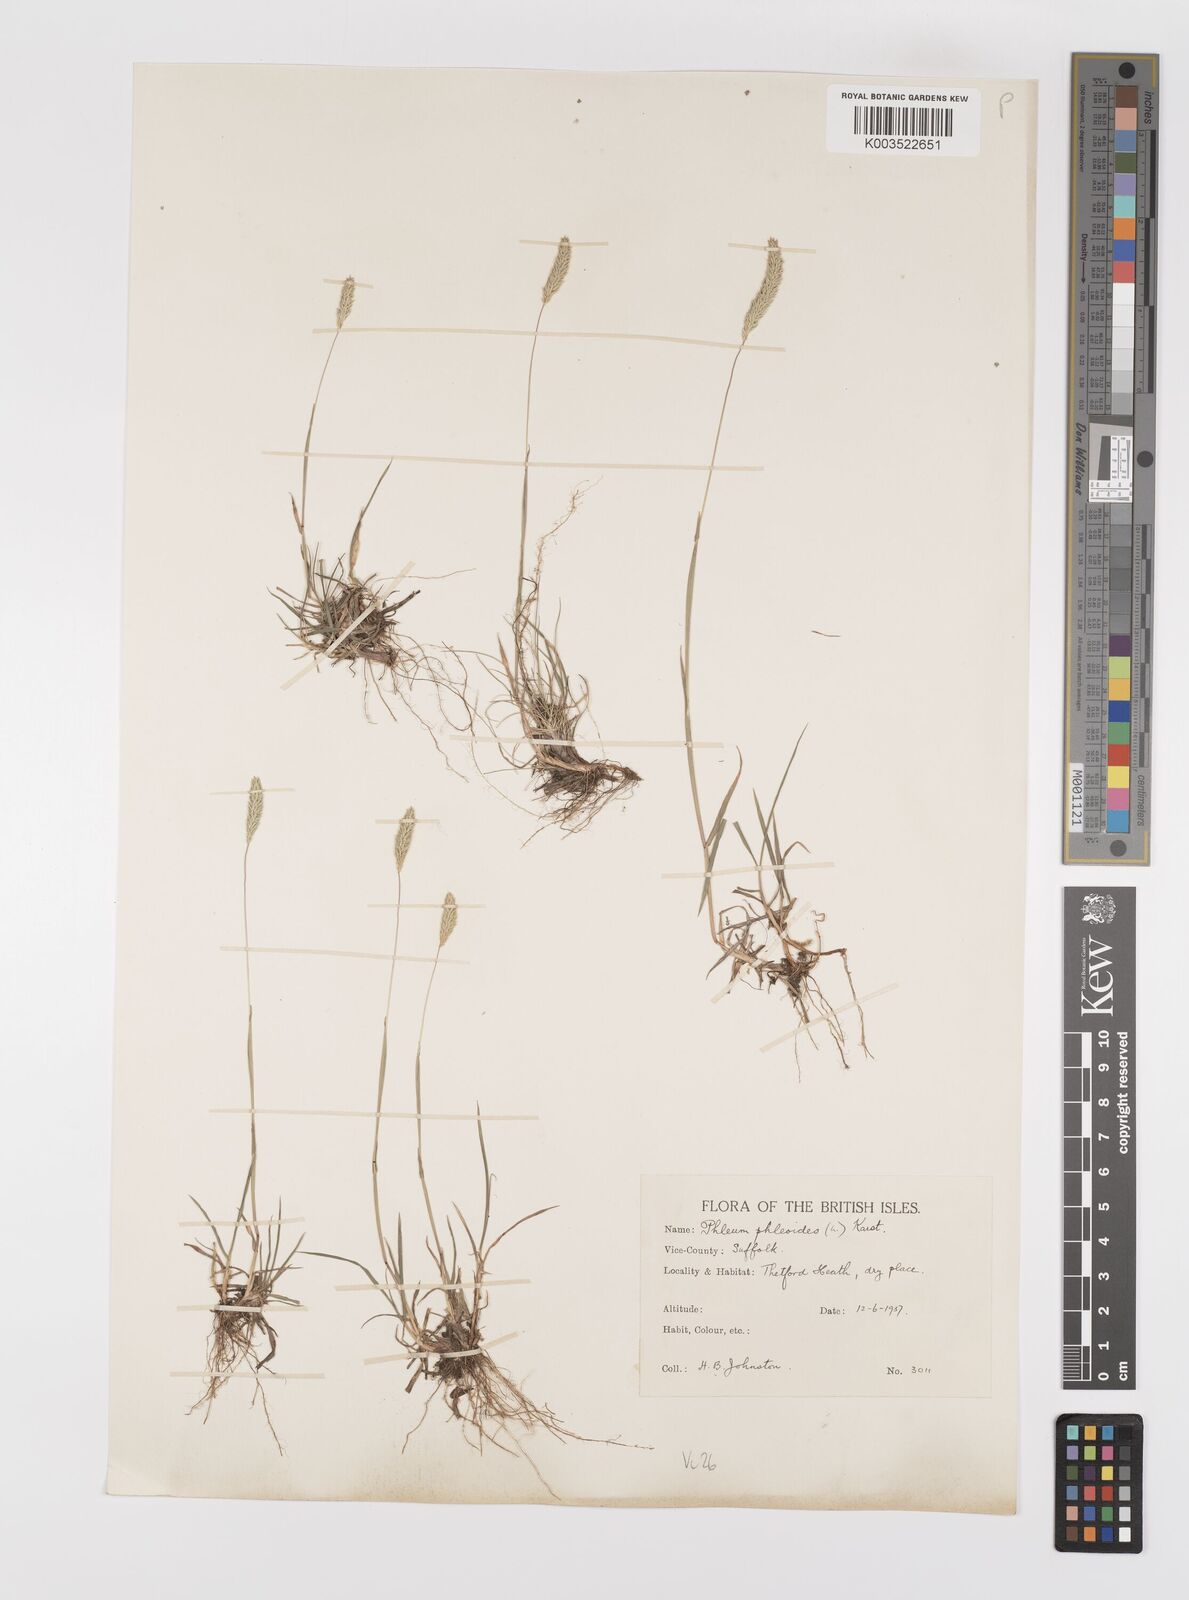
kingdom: Plantae
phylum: Tracheophyta
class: Liliopsida
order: Poales
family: Poaceae
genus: Phleum
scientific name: Phleum phleoides
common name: Purple-stem cat's-tail
